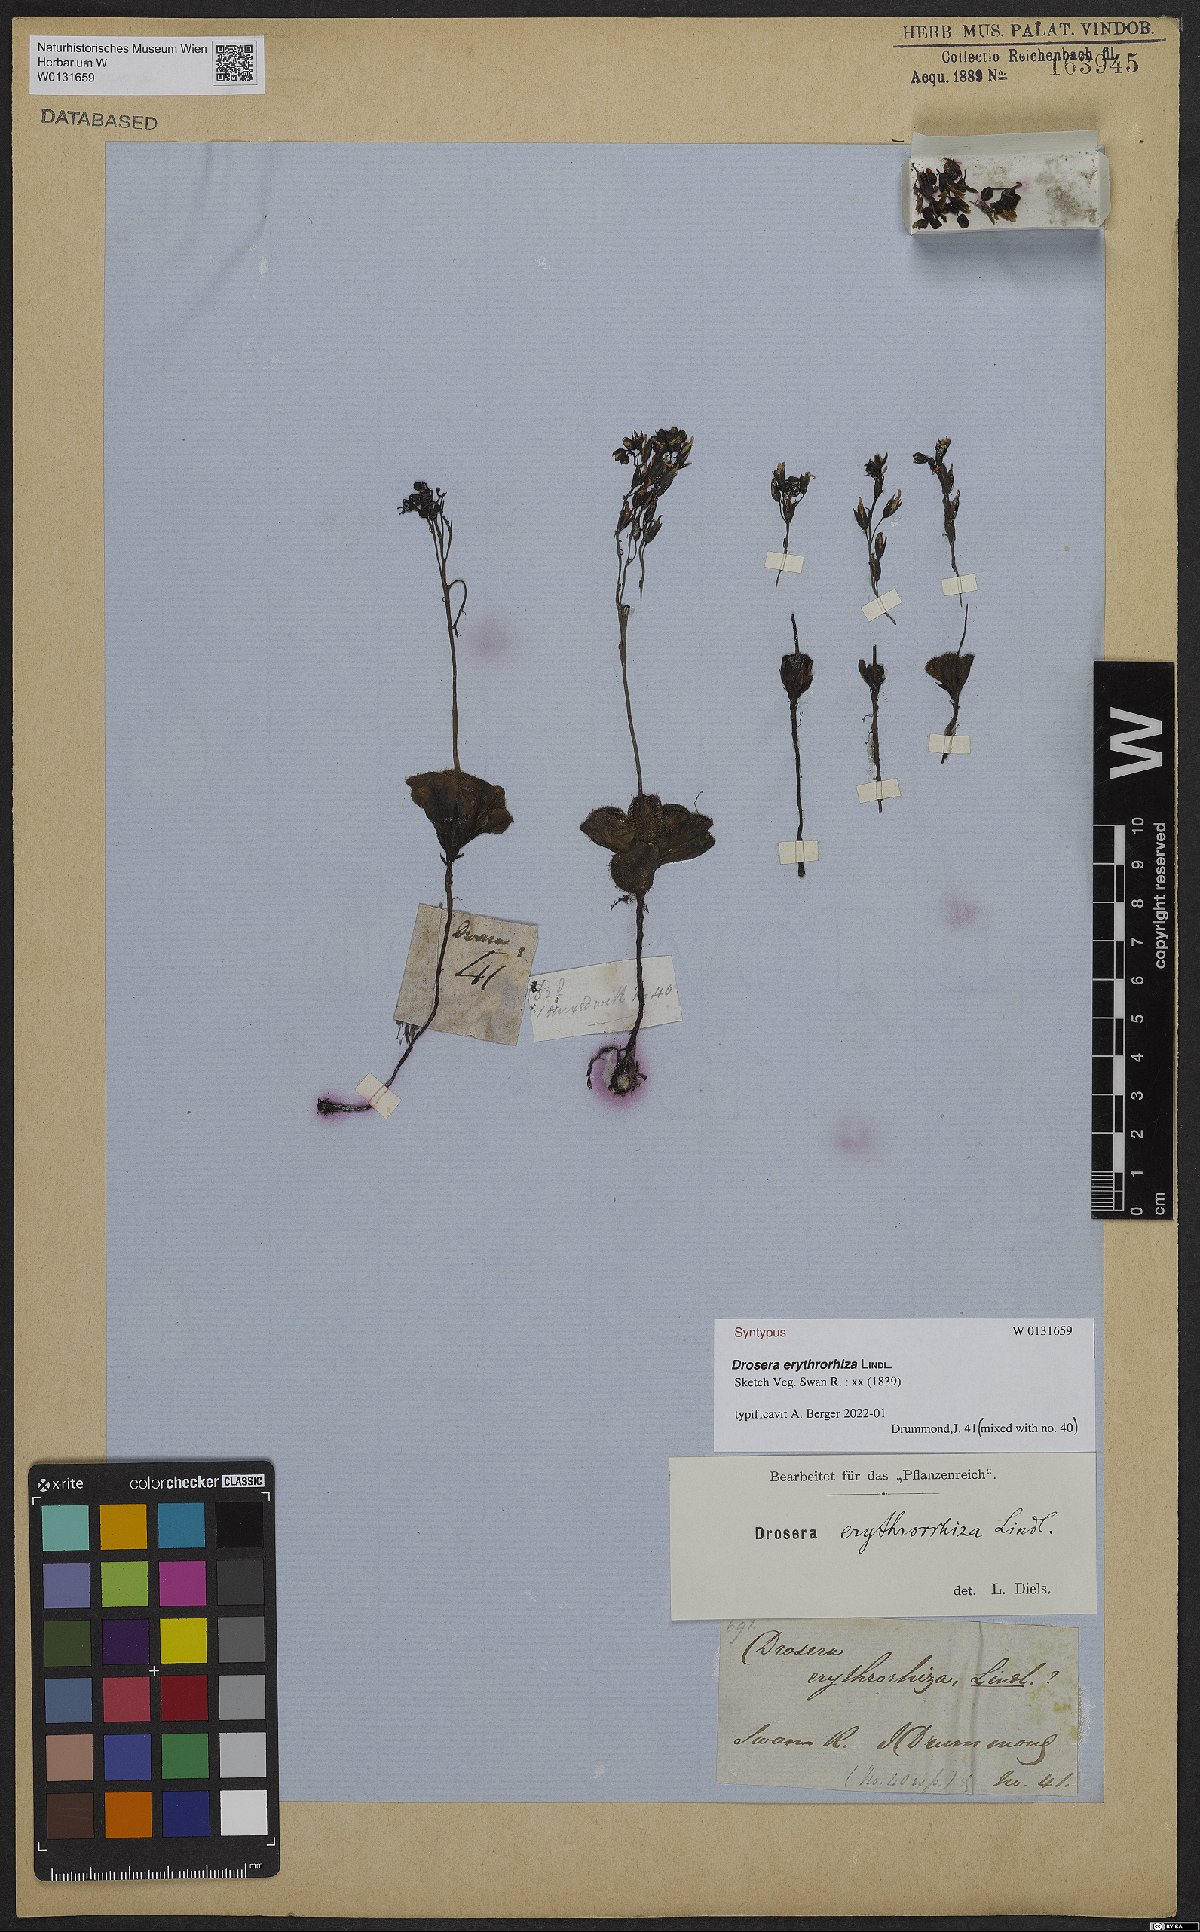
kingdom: Plantae
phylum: Tracheophyta
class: Magnoliopsida
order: Caryophyllales
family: Droseraceae
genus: Drosera
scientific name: Drosera erythrorhiza
